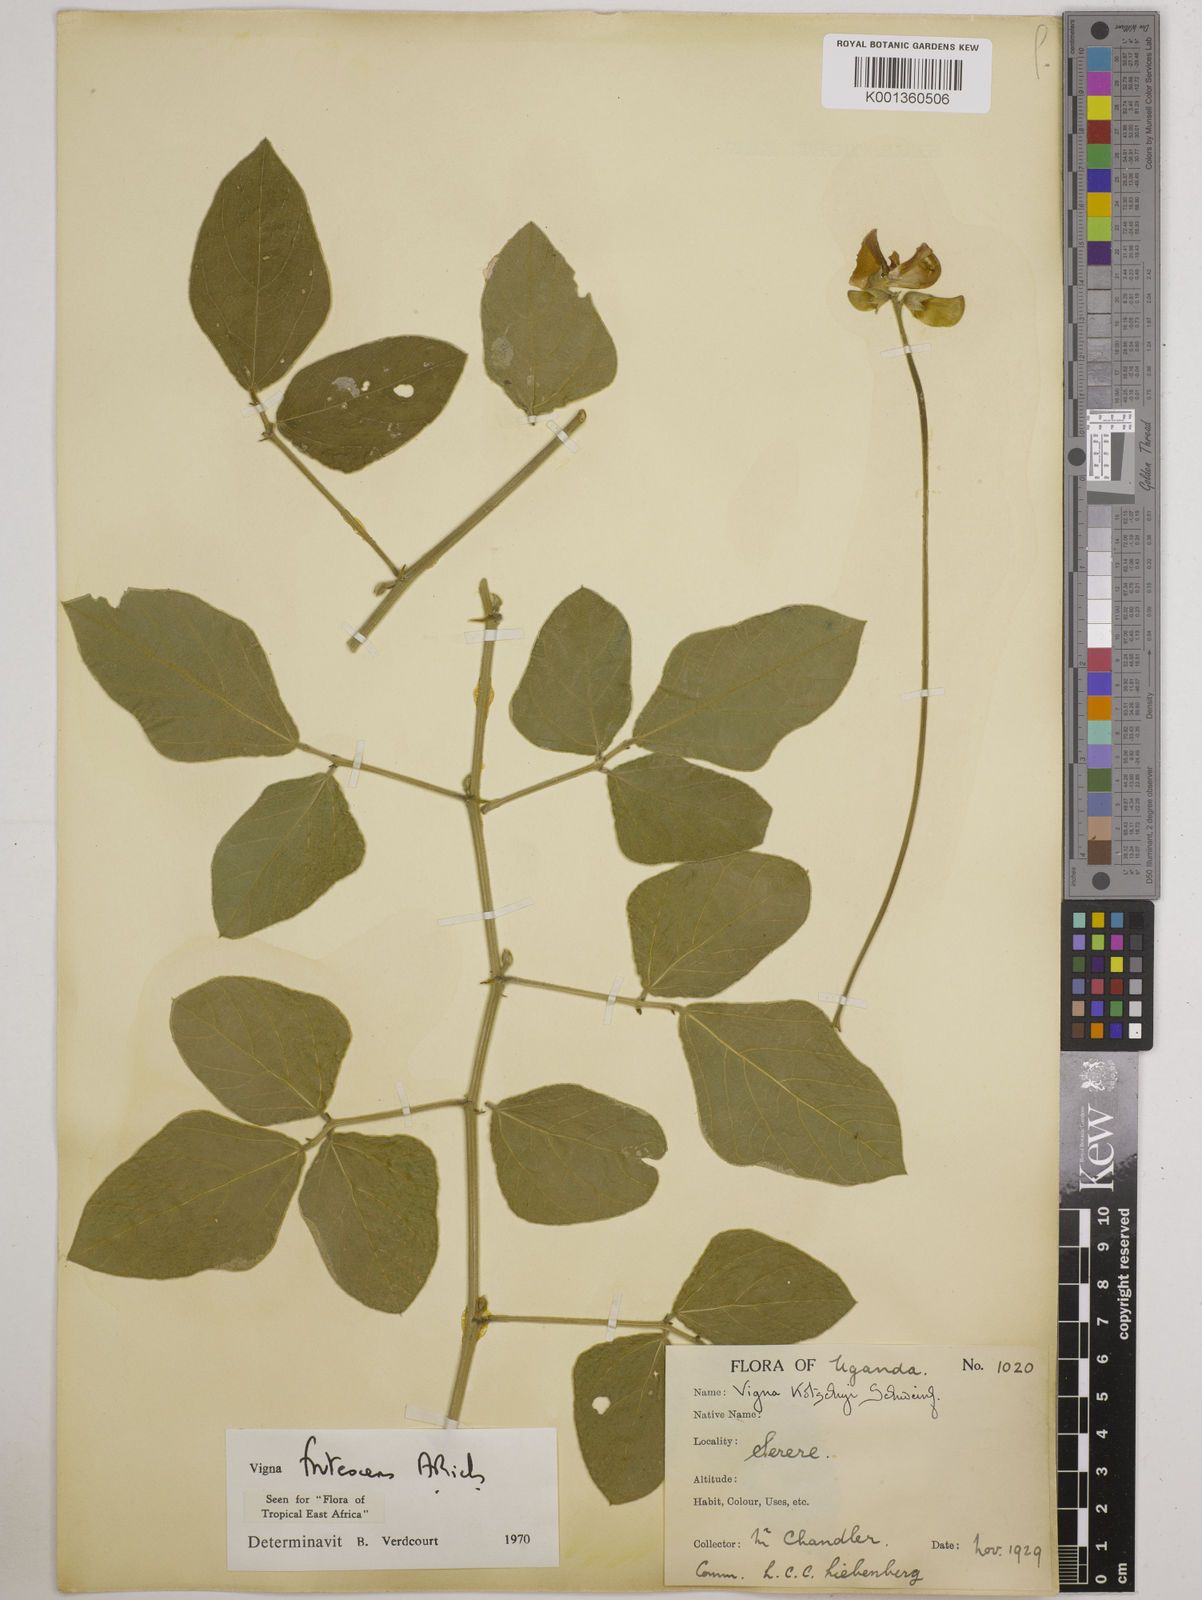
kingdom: Plantae
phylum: Tracheophyta
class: Magnoliopsida
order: Fabales
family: Fabaceae
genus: Vigna
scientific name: Vigna frutescens
